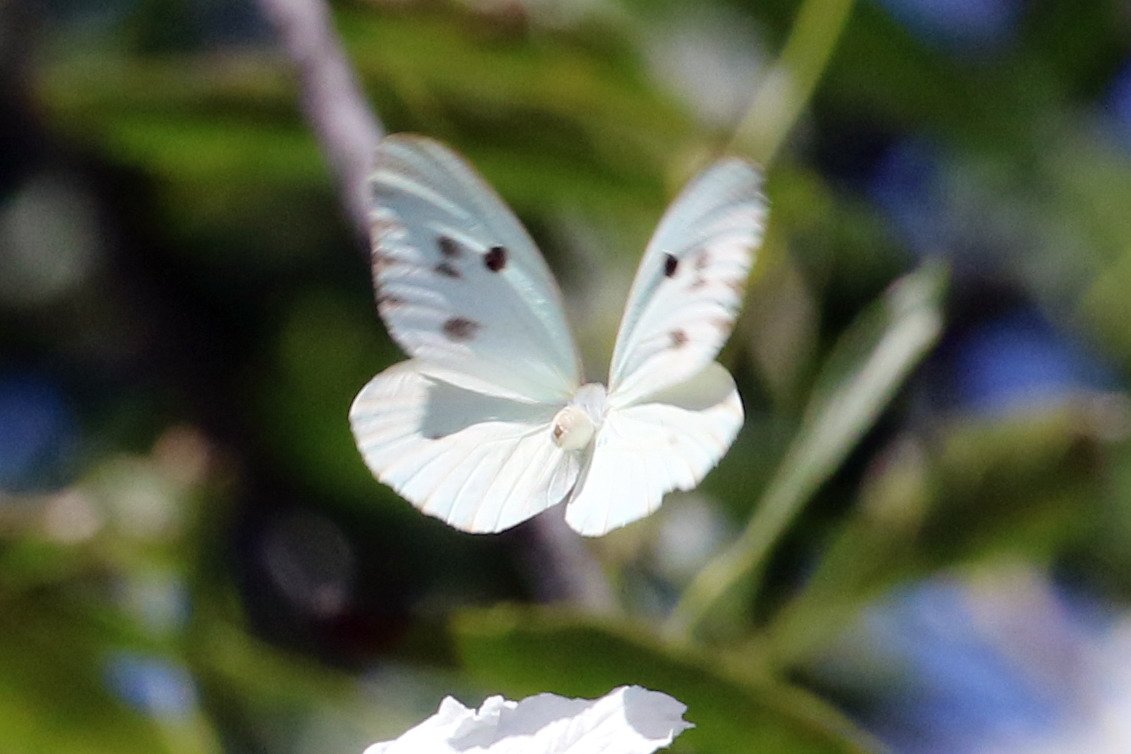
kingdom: Animalia
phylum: Arthropoda
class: Insecta
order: Lepidoptera
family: Pieridae
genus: Ganyra
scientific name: Ganyra josephina
